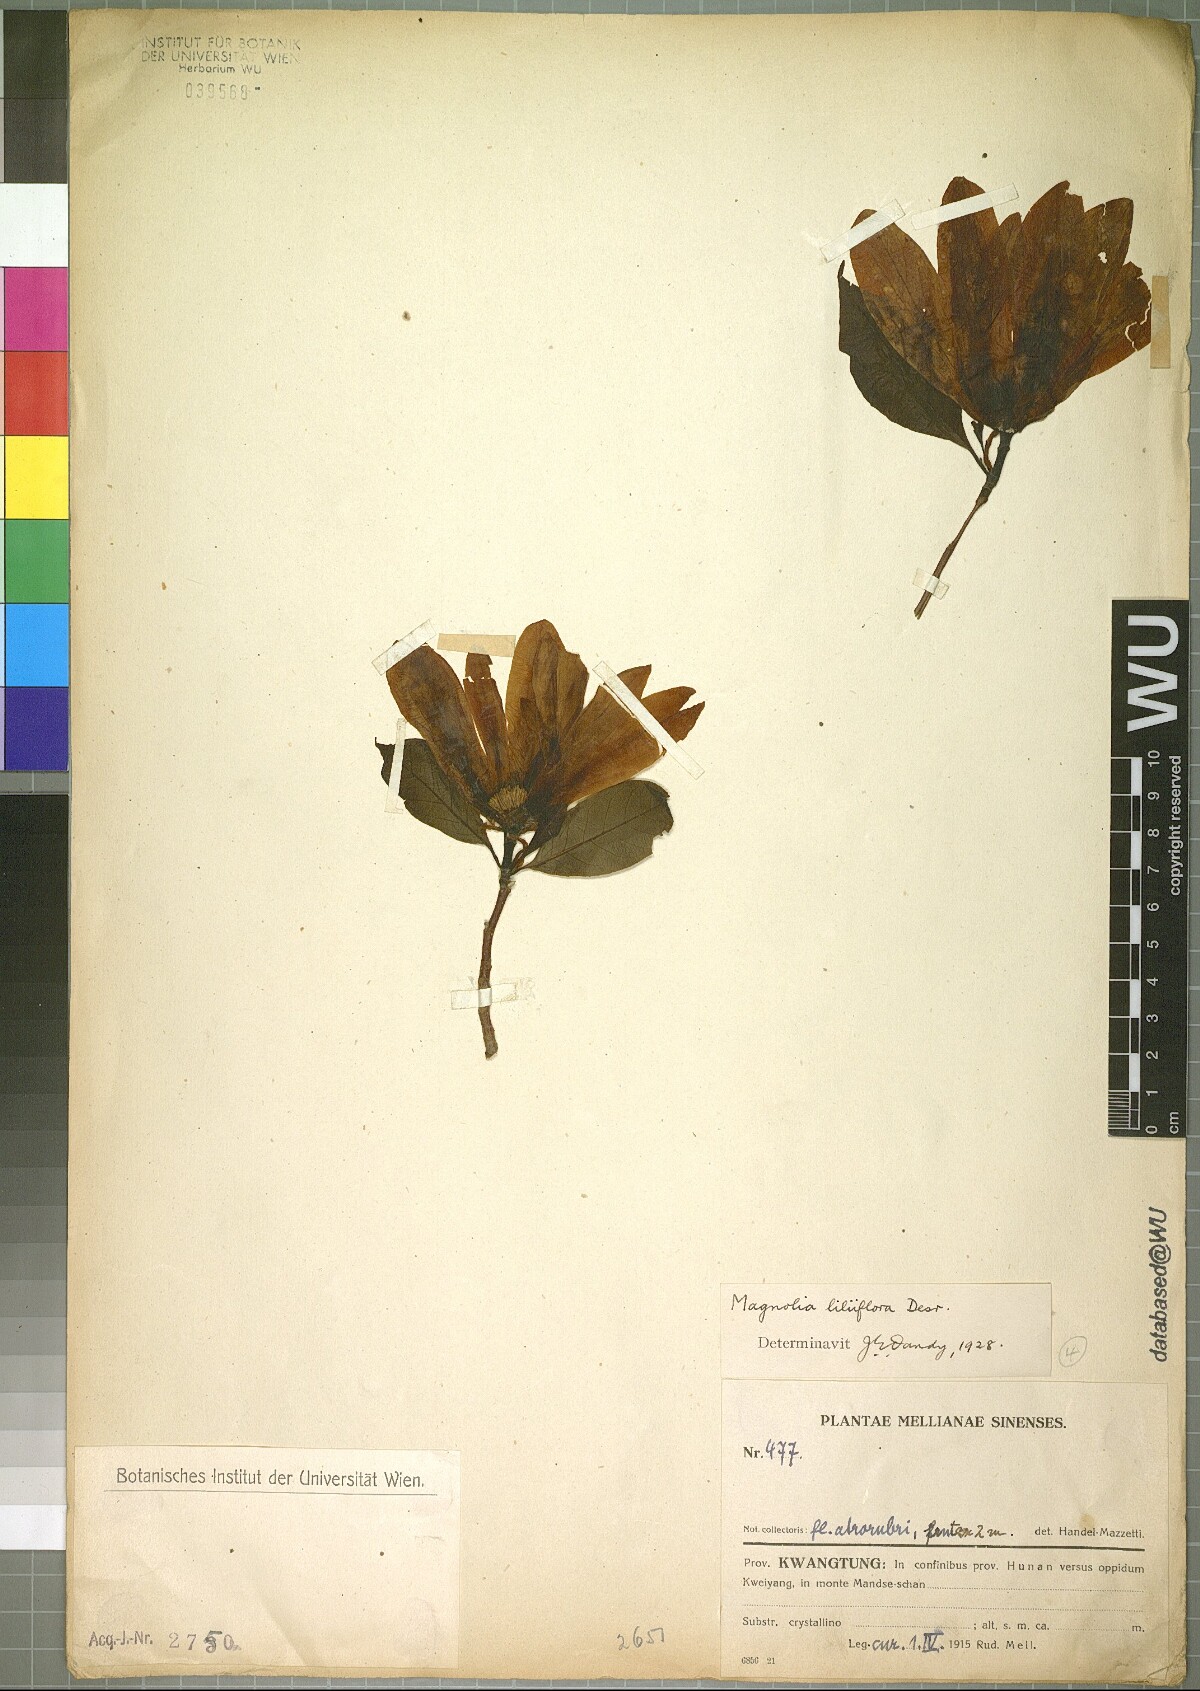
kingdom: Plantae
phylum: Tracheophyta
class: Magnoliopsida
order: Magnoliales
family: Magnoliaceae
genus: Magnolia
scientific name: Magnolia liliiflora
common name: Purple magnolia
